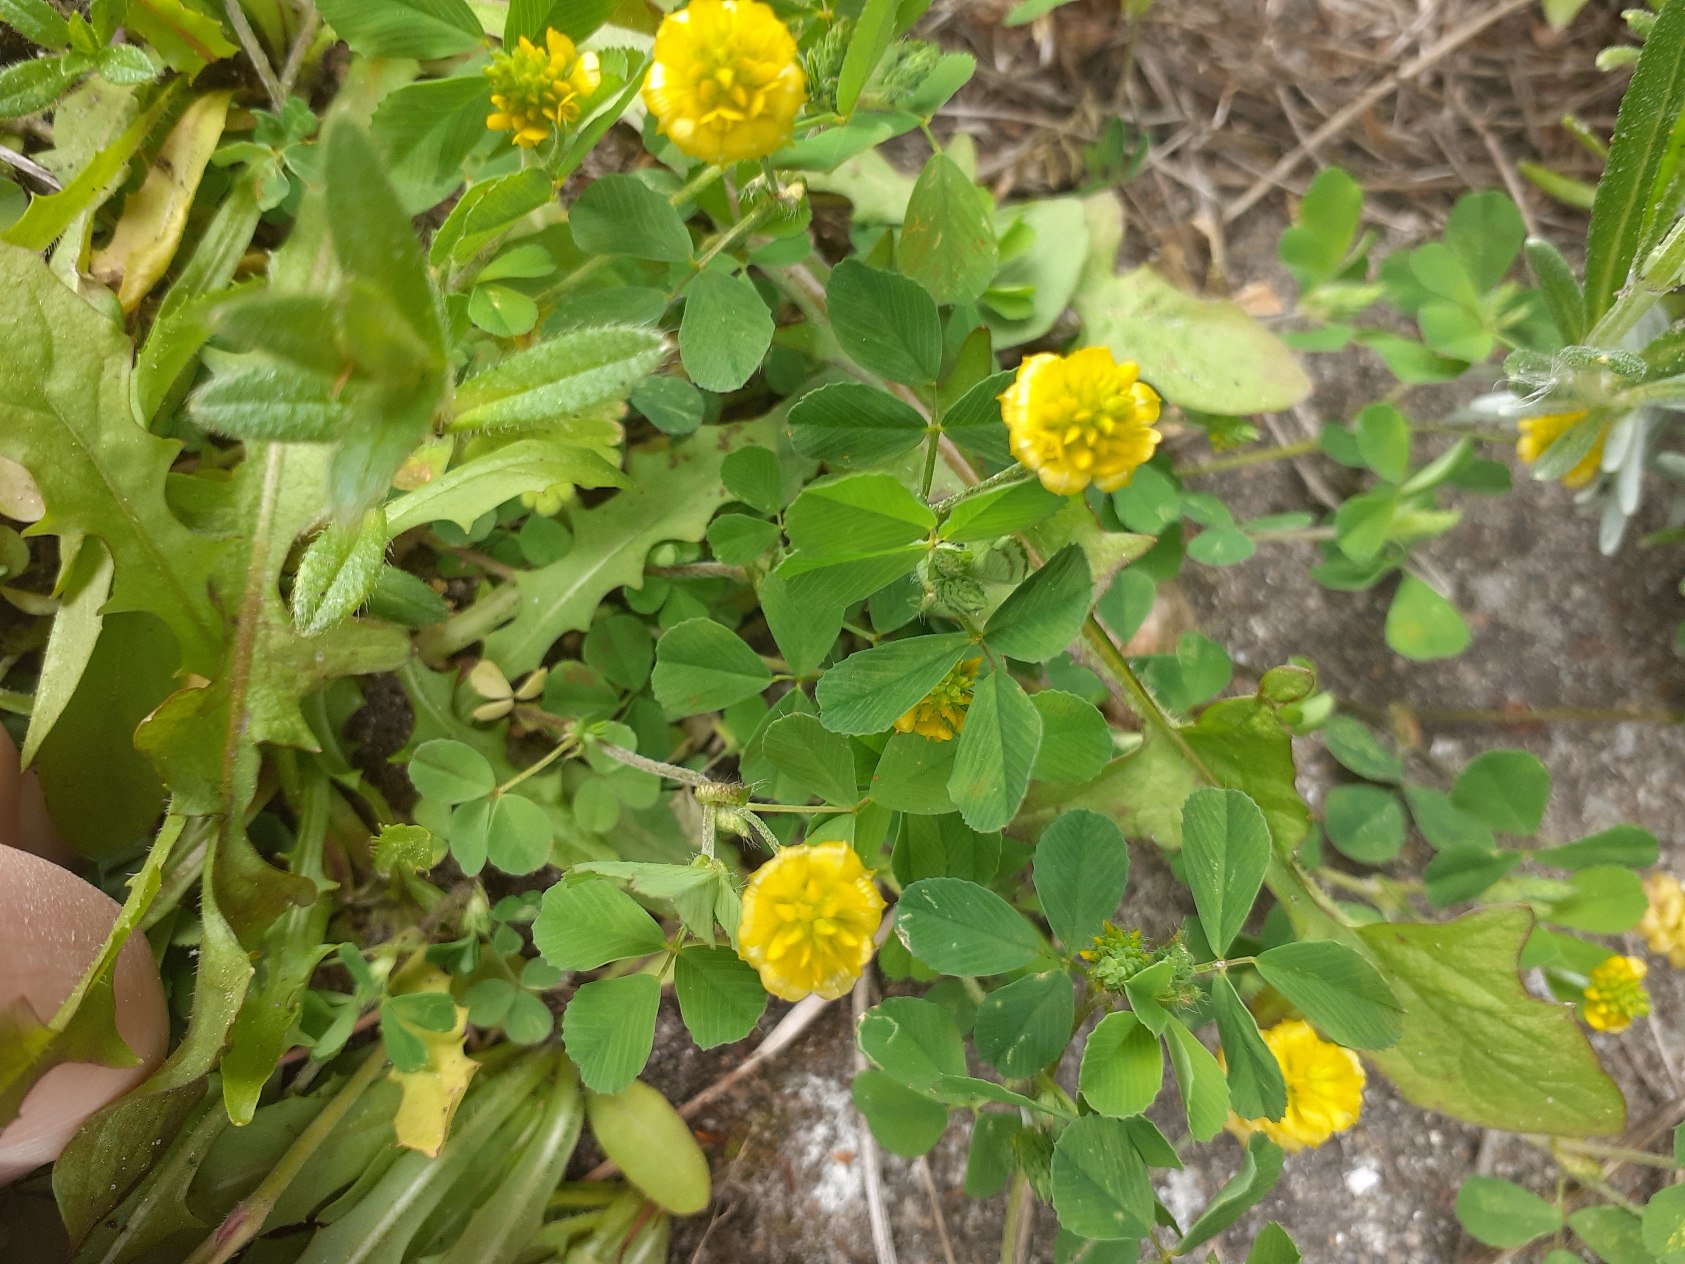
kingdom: Plantae
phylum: Tracheophyta
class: Magnoliopsida
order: Fabales
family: Fabaceae
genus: Trifolium
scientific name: Trifolium campestre
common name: Gul kløver
